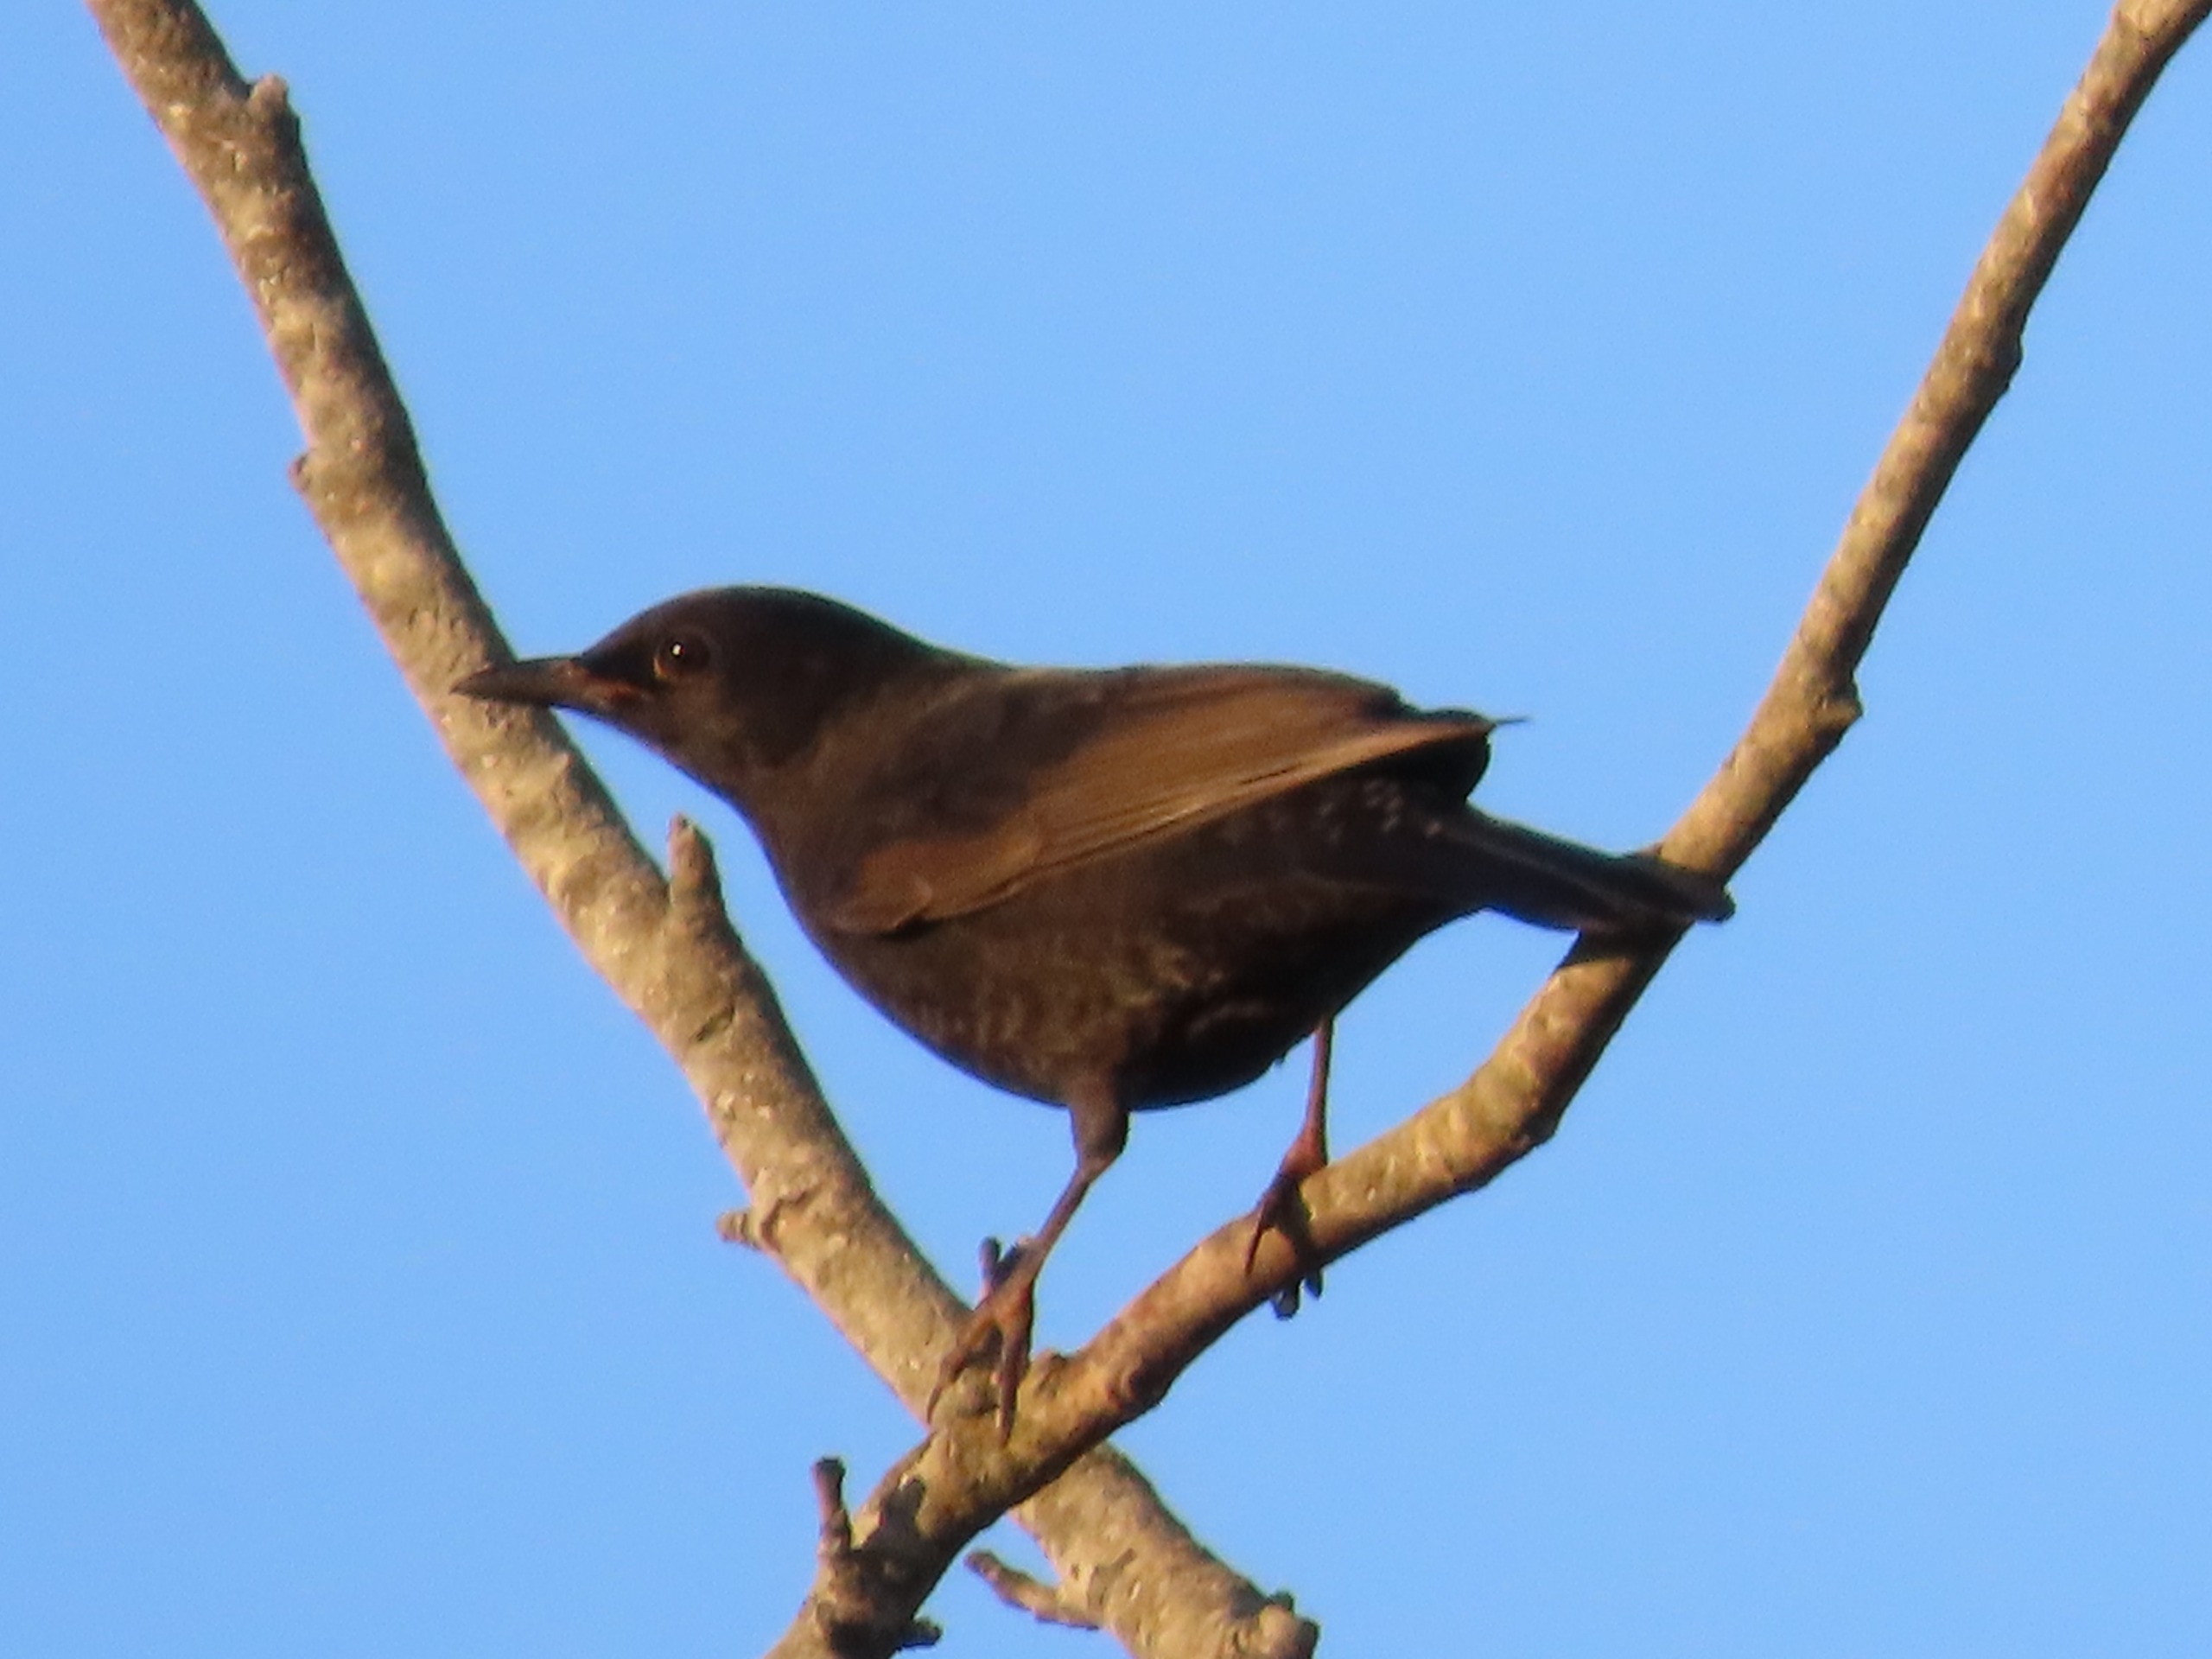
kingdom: Animalia
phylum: Chordata
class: Aves
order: Passeriformes
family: Turdidae
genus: Turdus
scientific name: Turdus merula
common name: Solsort
